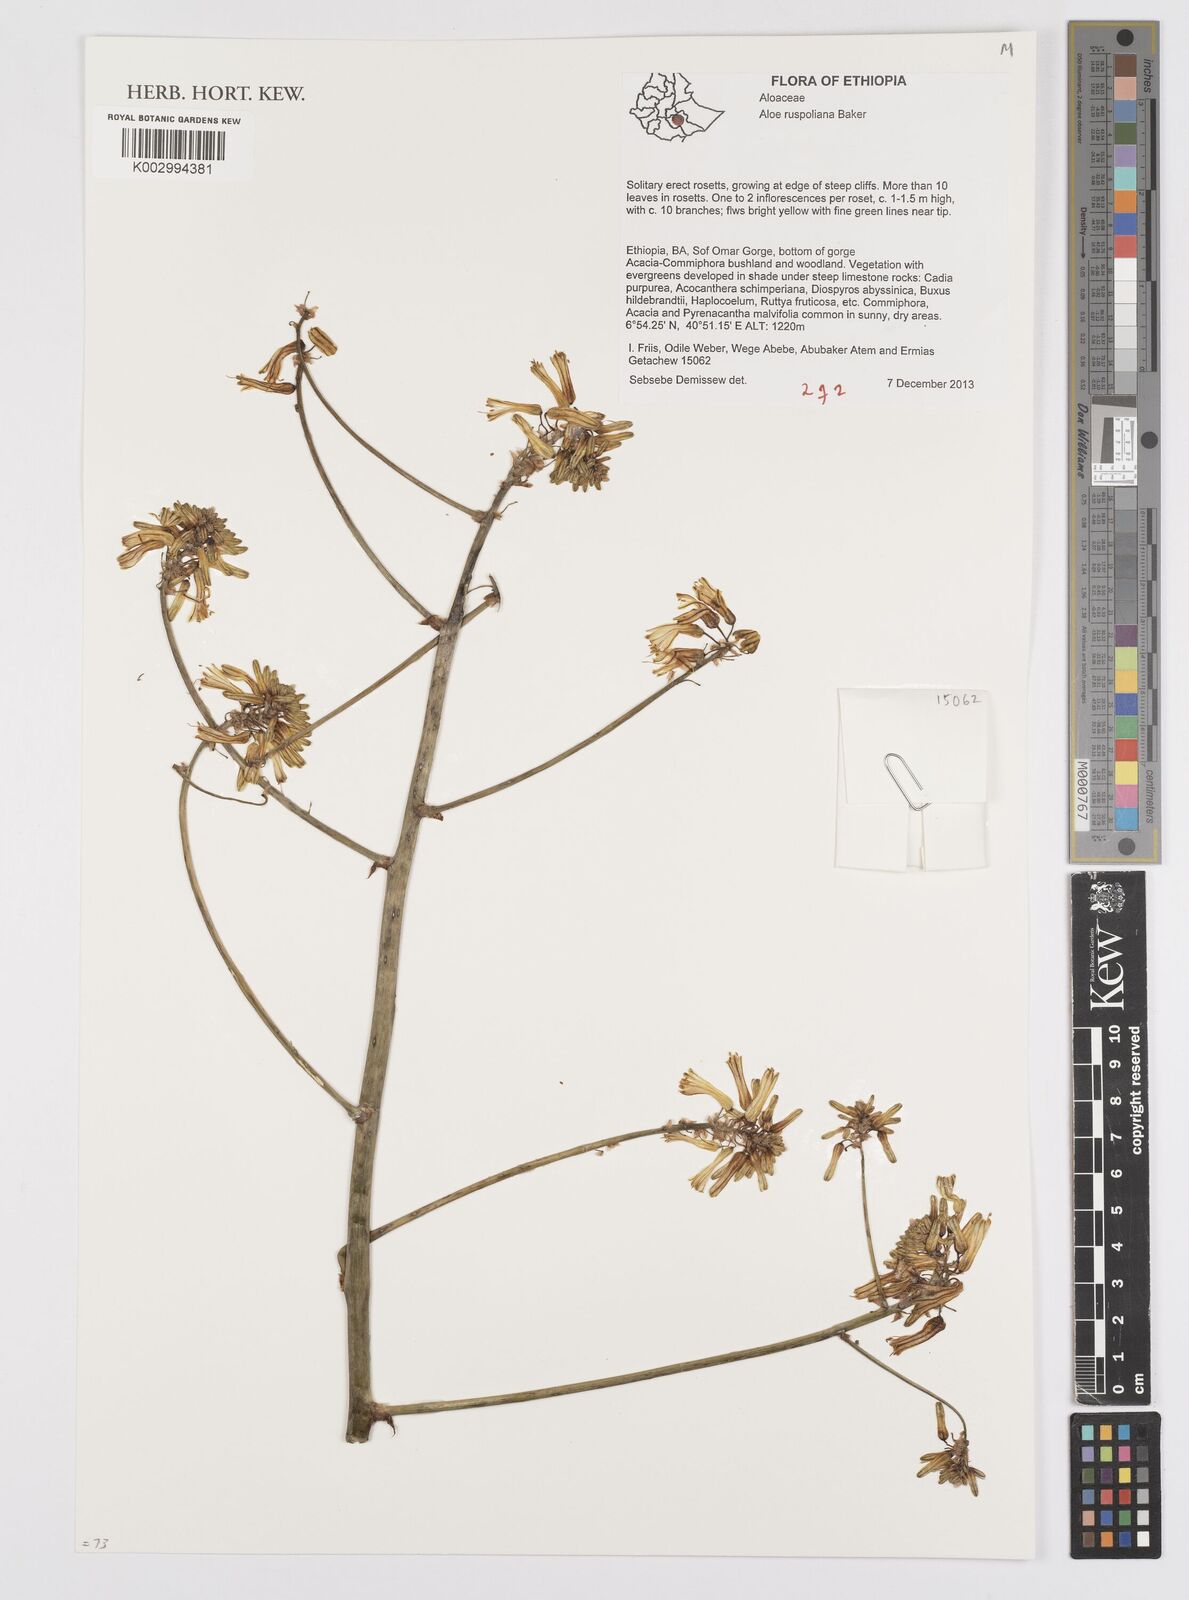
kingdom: Plantae
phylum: Tracheophyta
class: Liliopsida
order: Asparagales
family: Asphodelaceae
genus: Aloe
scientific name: Aloe ruspoliana
